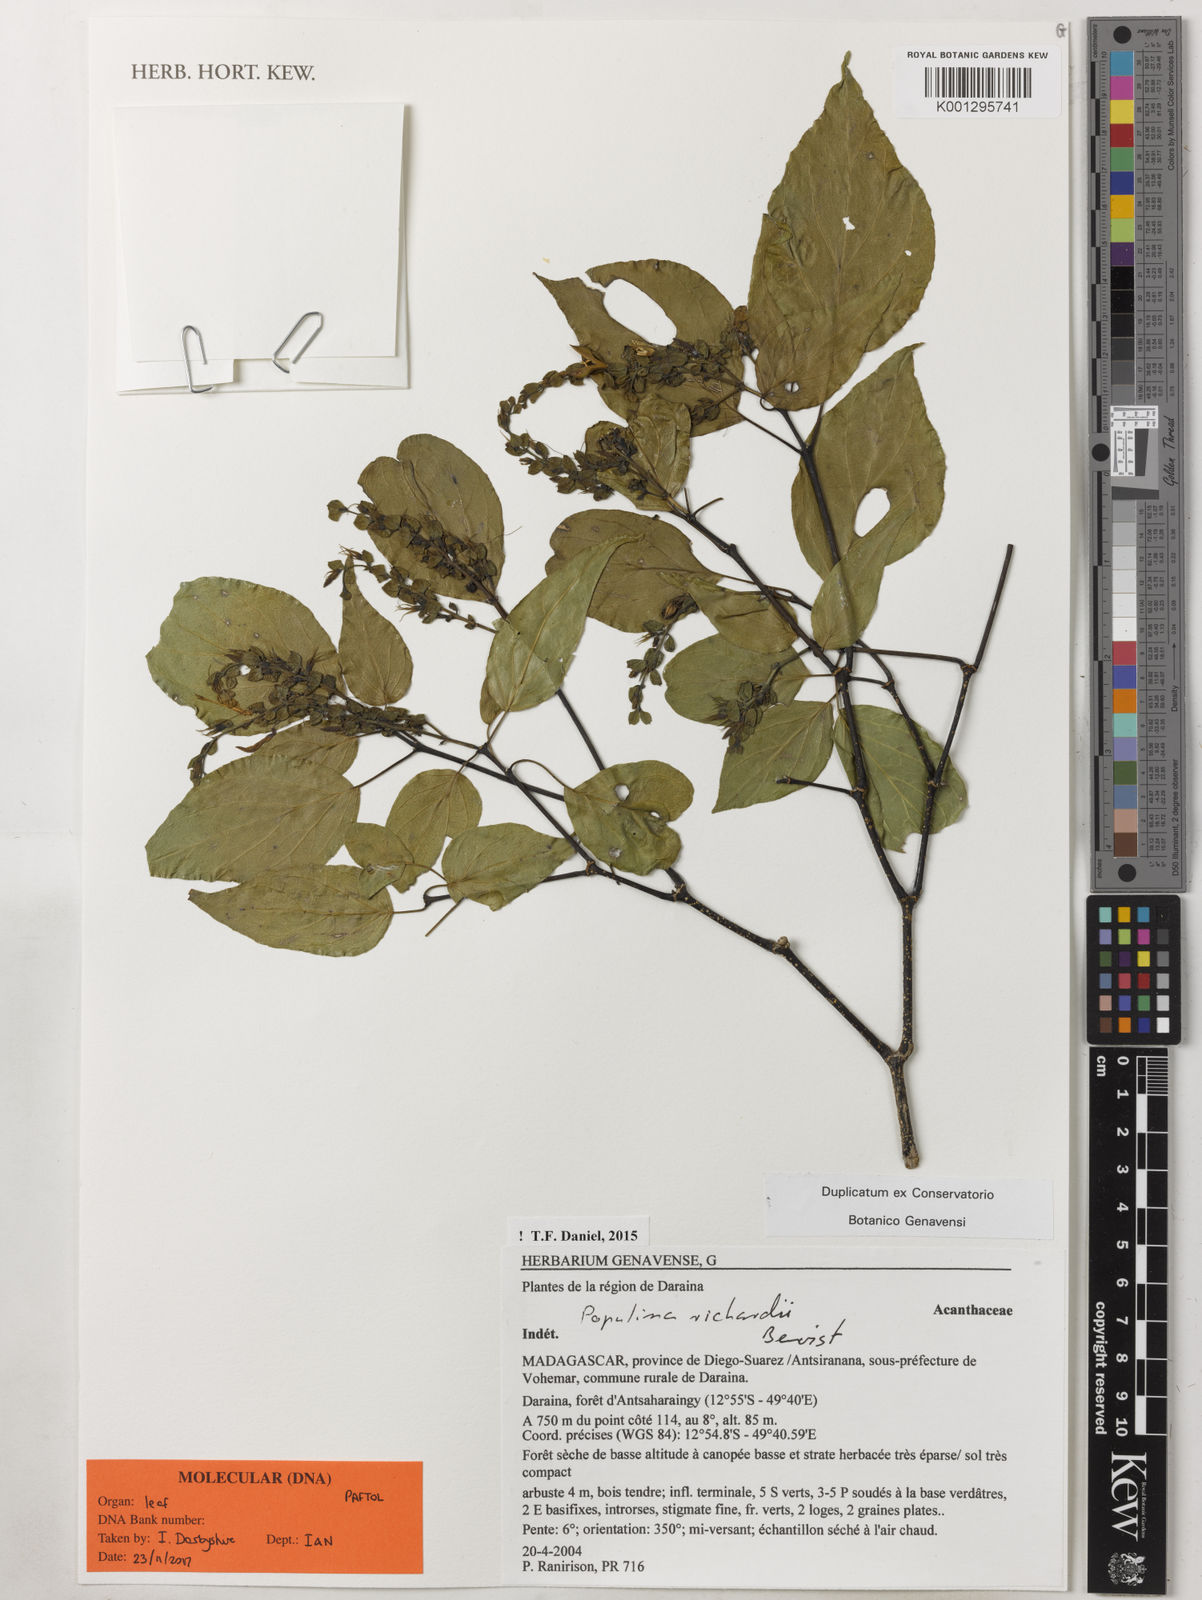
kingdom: Plantae
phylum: Tracheophyta
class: Magnoliopsida
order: Lamiales
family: Acanthaceae
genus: Populina
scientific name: Populina
